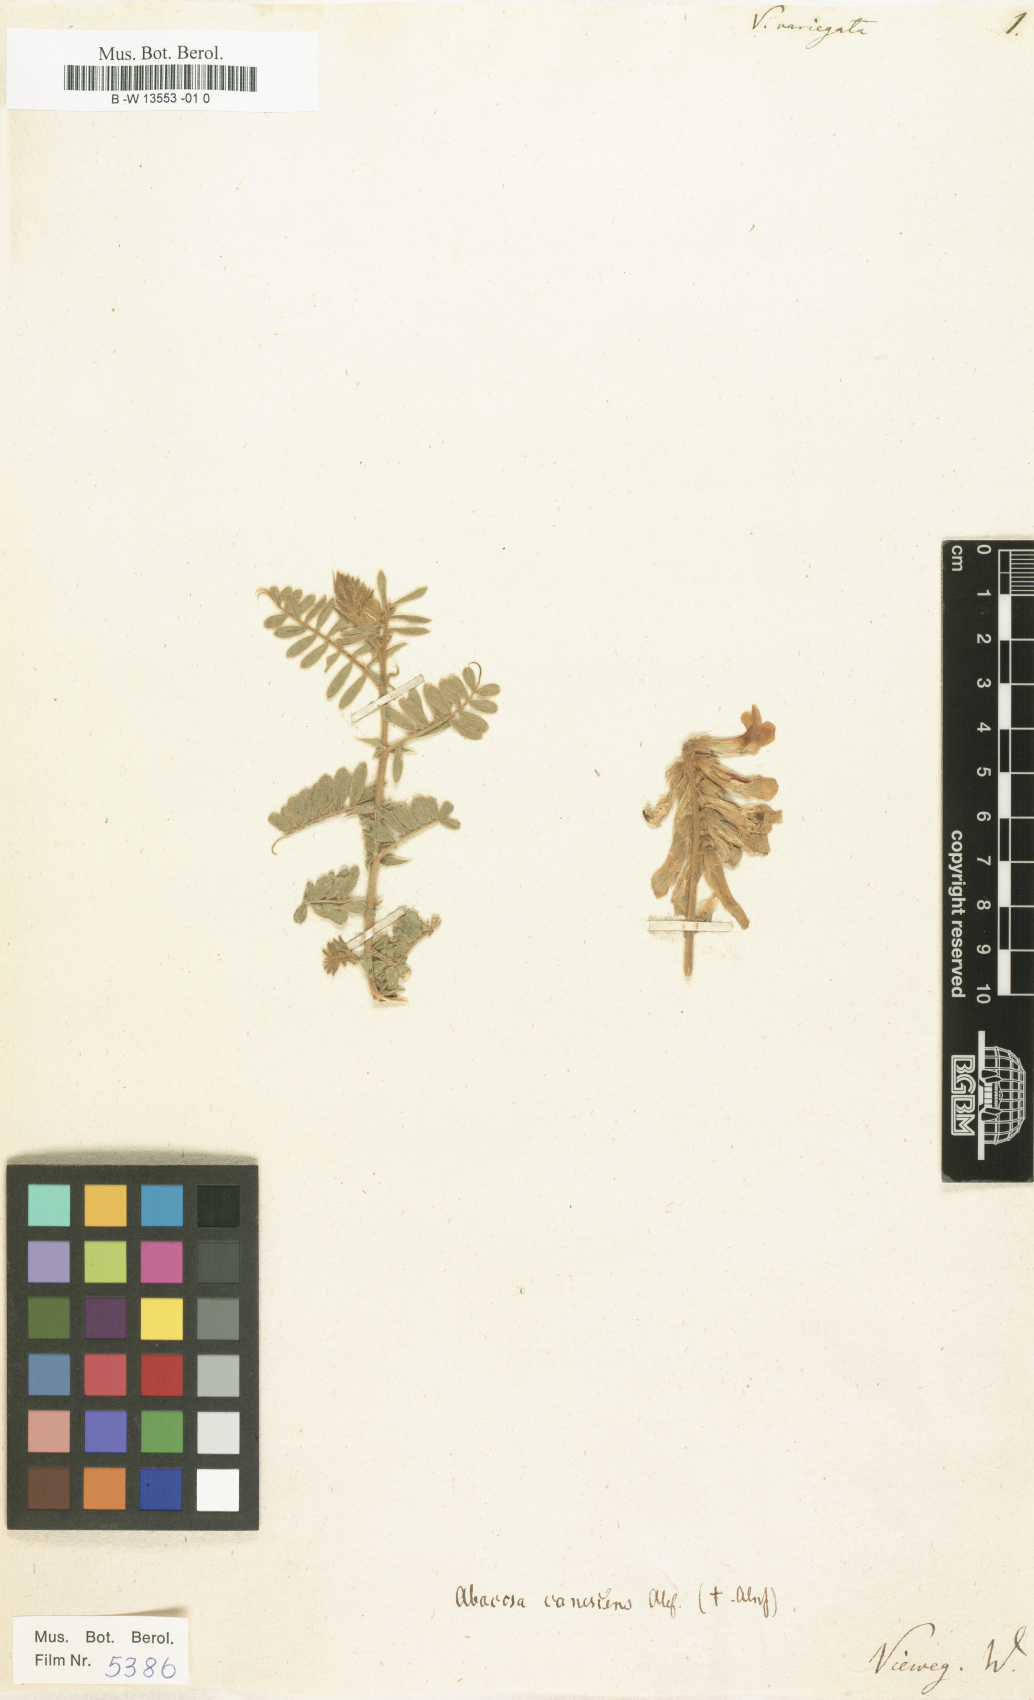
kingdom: Plantae
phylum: Tracheophyta
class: Magnoliopsida
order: Fabales
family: Fabaceae
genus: Vicia
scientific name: Vicia variegata
